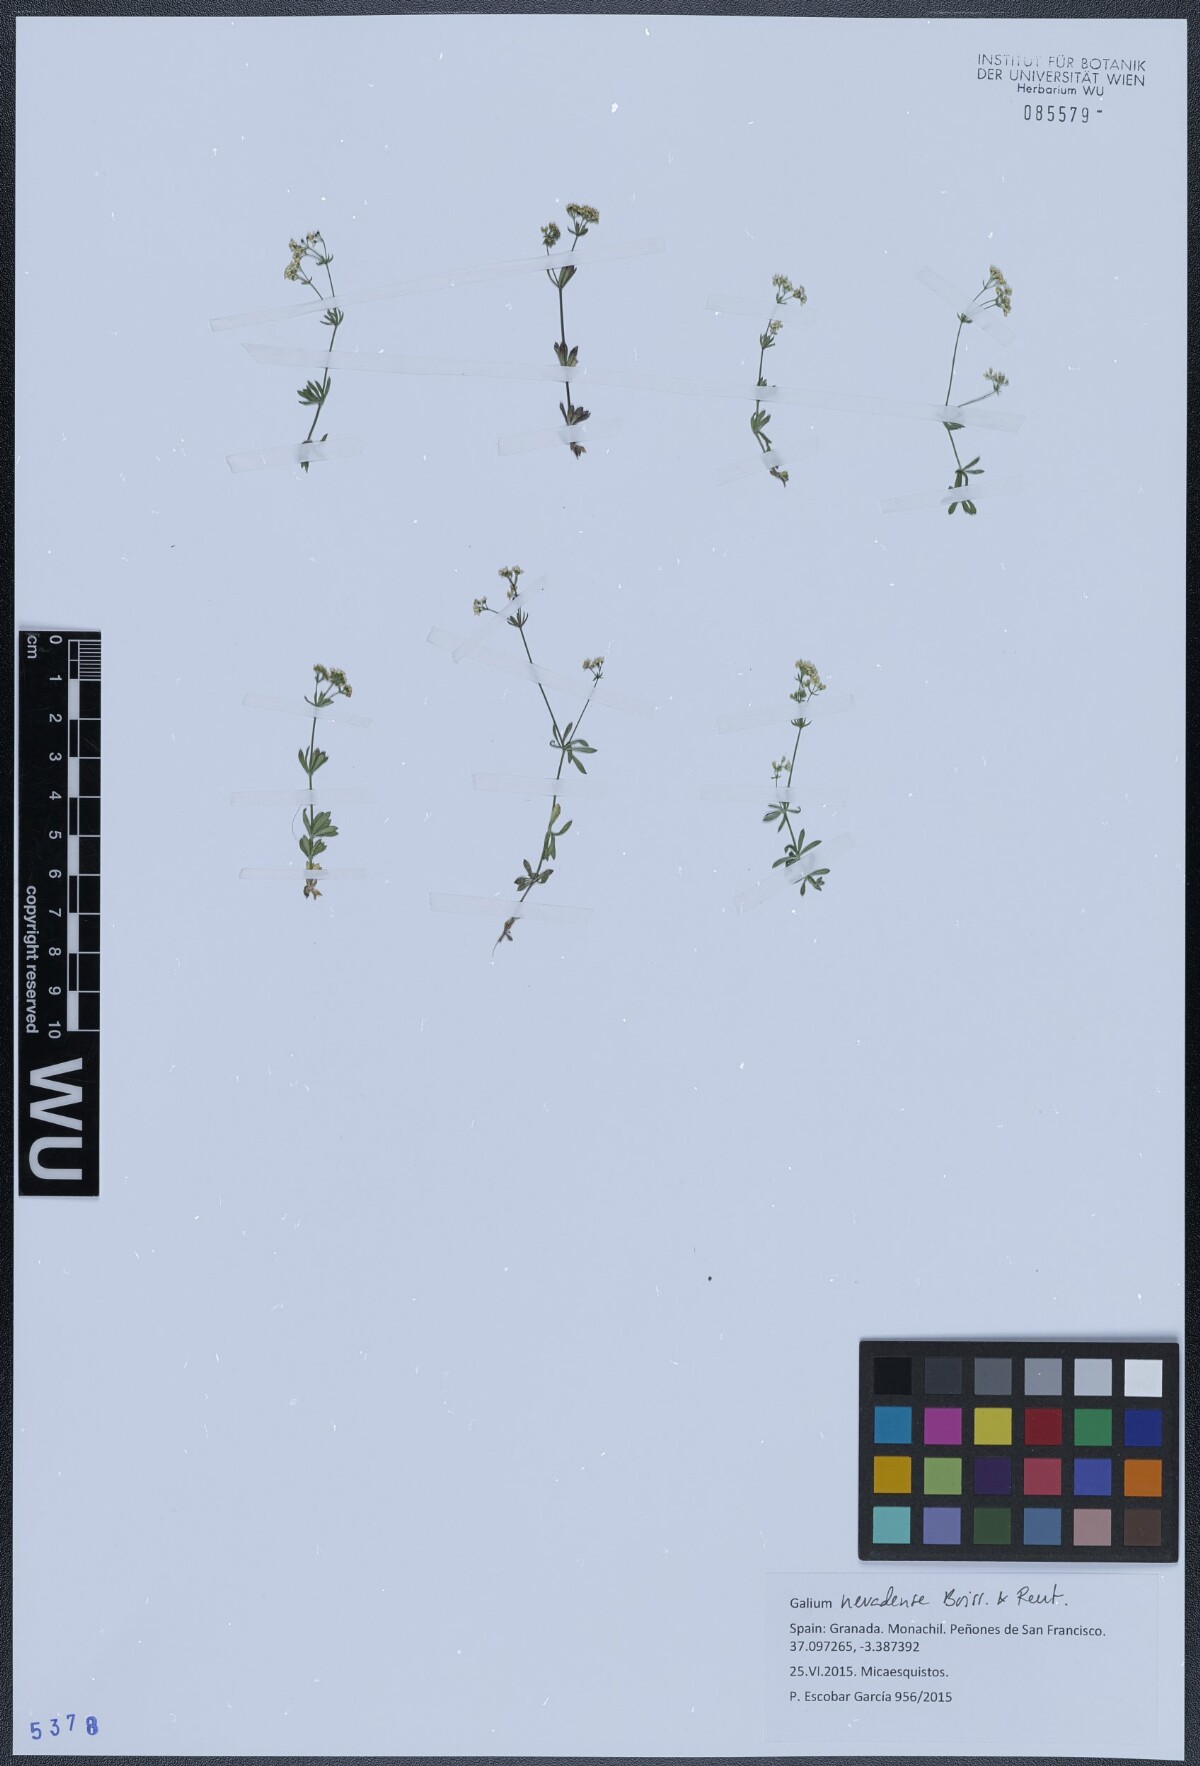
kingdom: Plantae
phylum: Tracheophyta
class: Magnoliopsida
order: Gentianales
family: Rubiaceae
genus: Galium
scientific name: Galium nevadense
